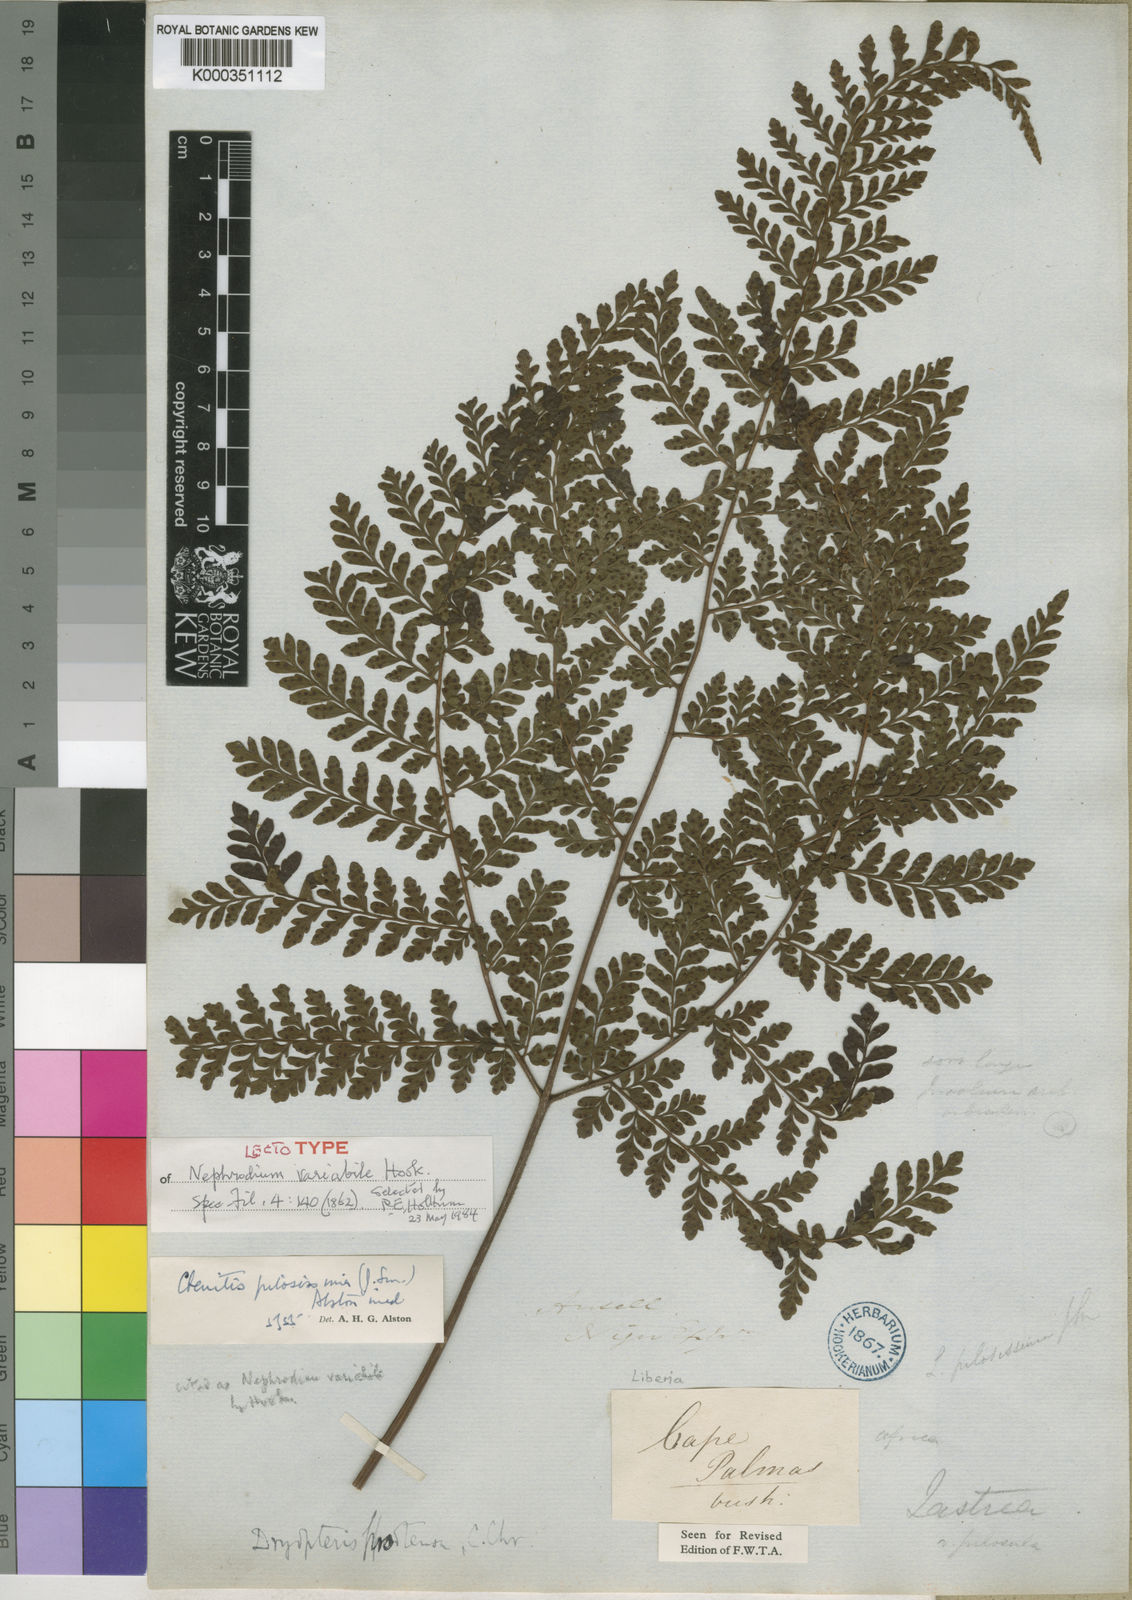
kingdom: Plantae
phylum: Tracheophyta
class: Polypodiopsida
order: Polypodiales
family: Tectariaceae
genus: Triplophyllum
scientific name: Triplophyllum pilosissimum
